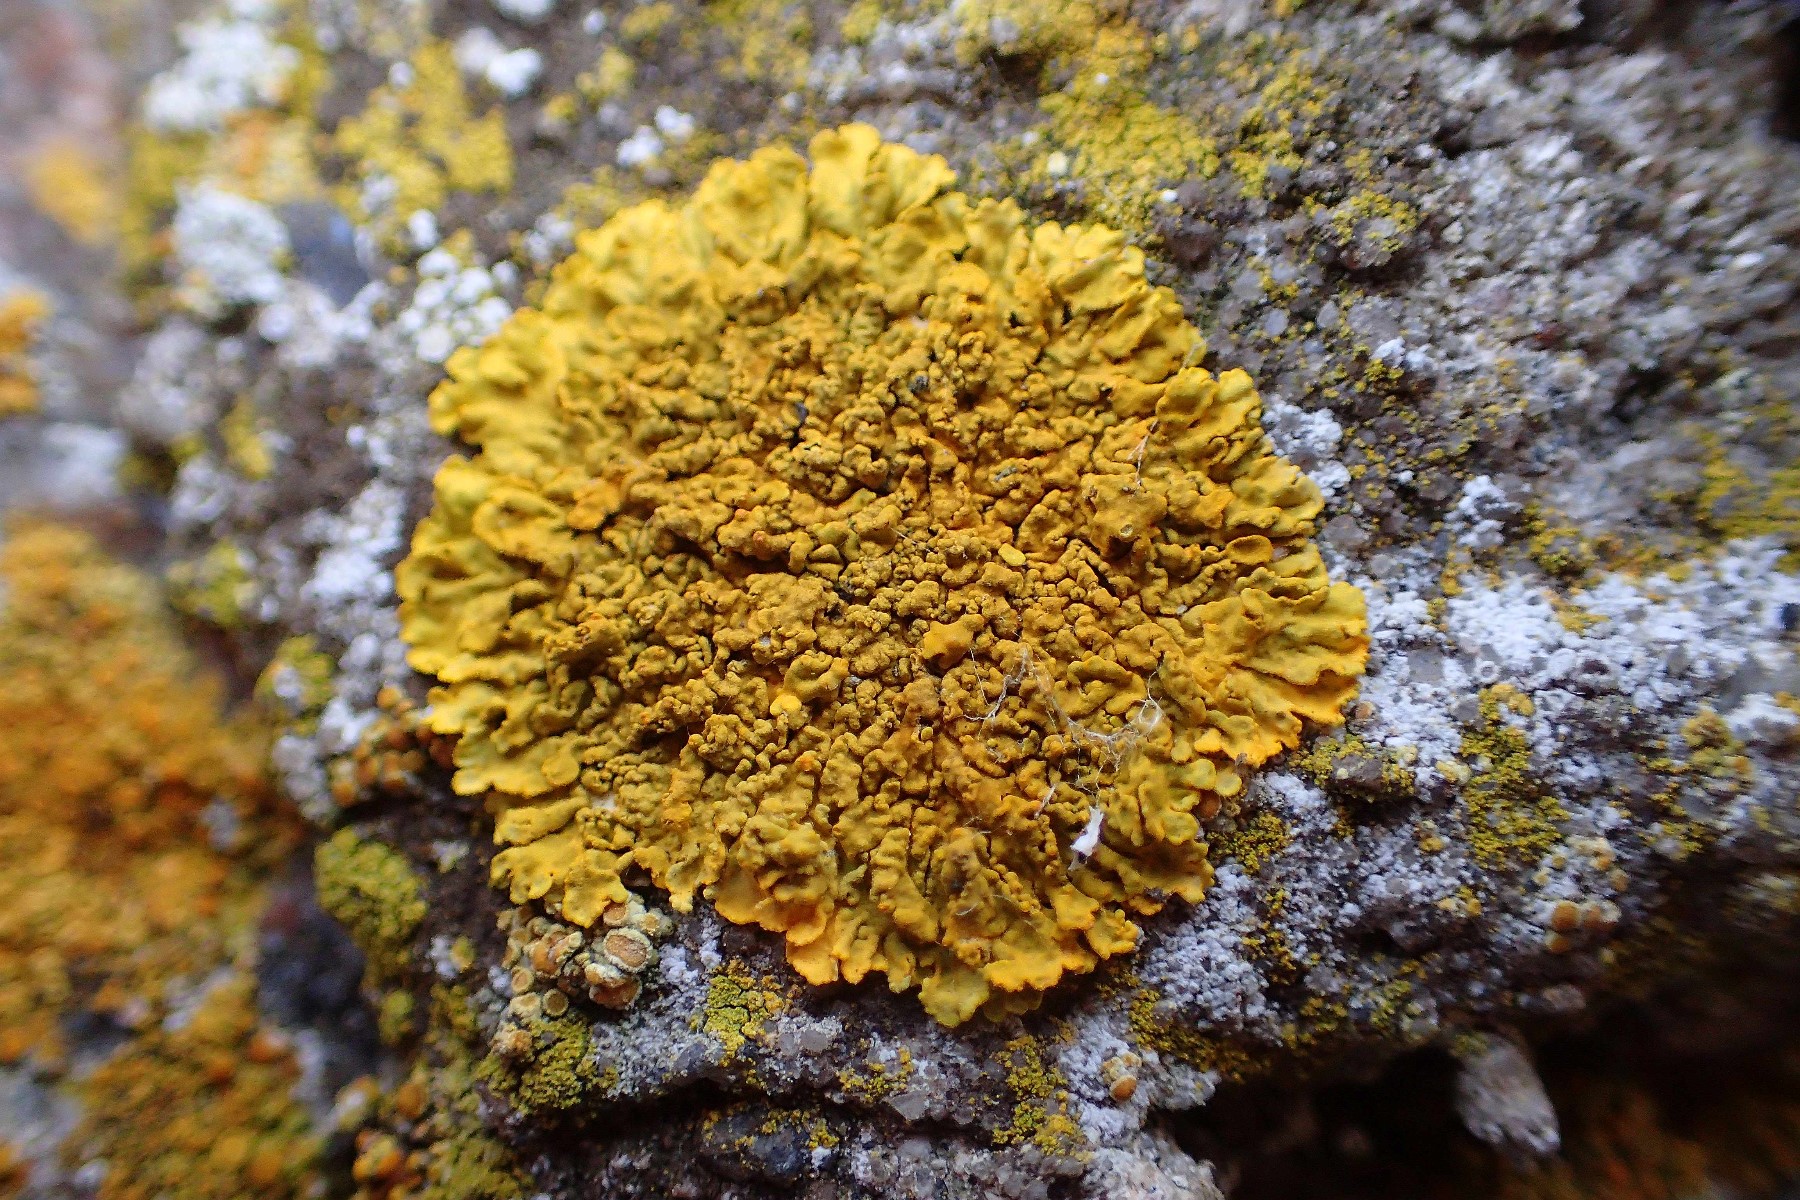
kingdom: Fungi
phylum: Ascomycota
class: Lecanoromycetes
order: Teloschistales
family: Teloschistaceae
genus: Xanthoria
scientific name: Xanthoria calcicola
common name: vortet væggelav
